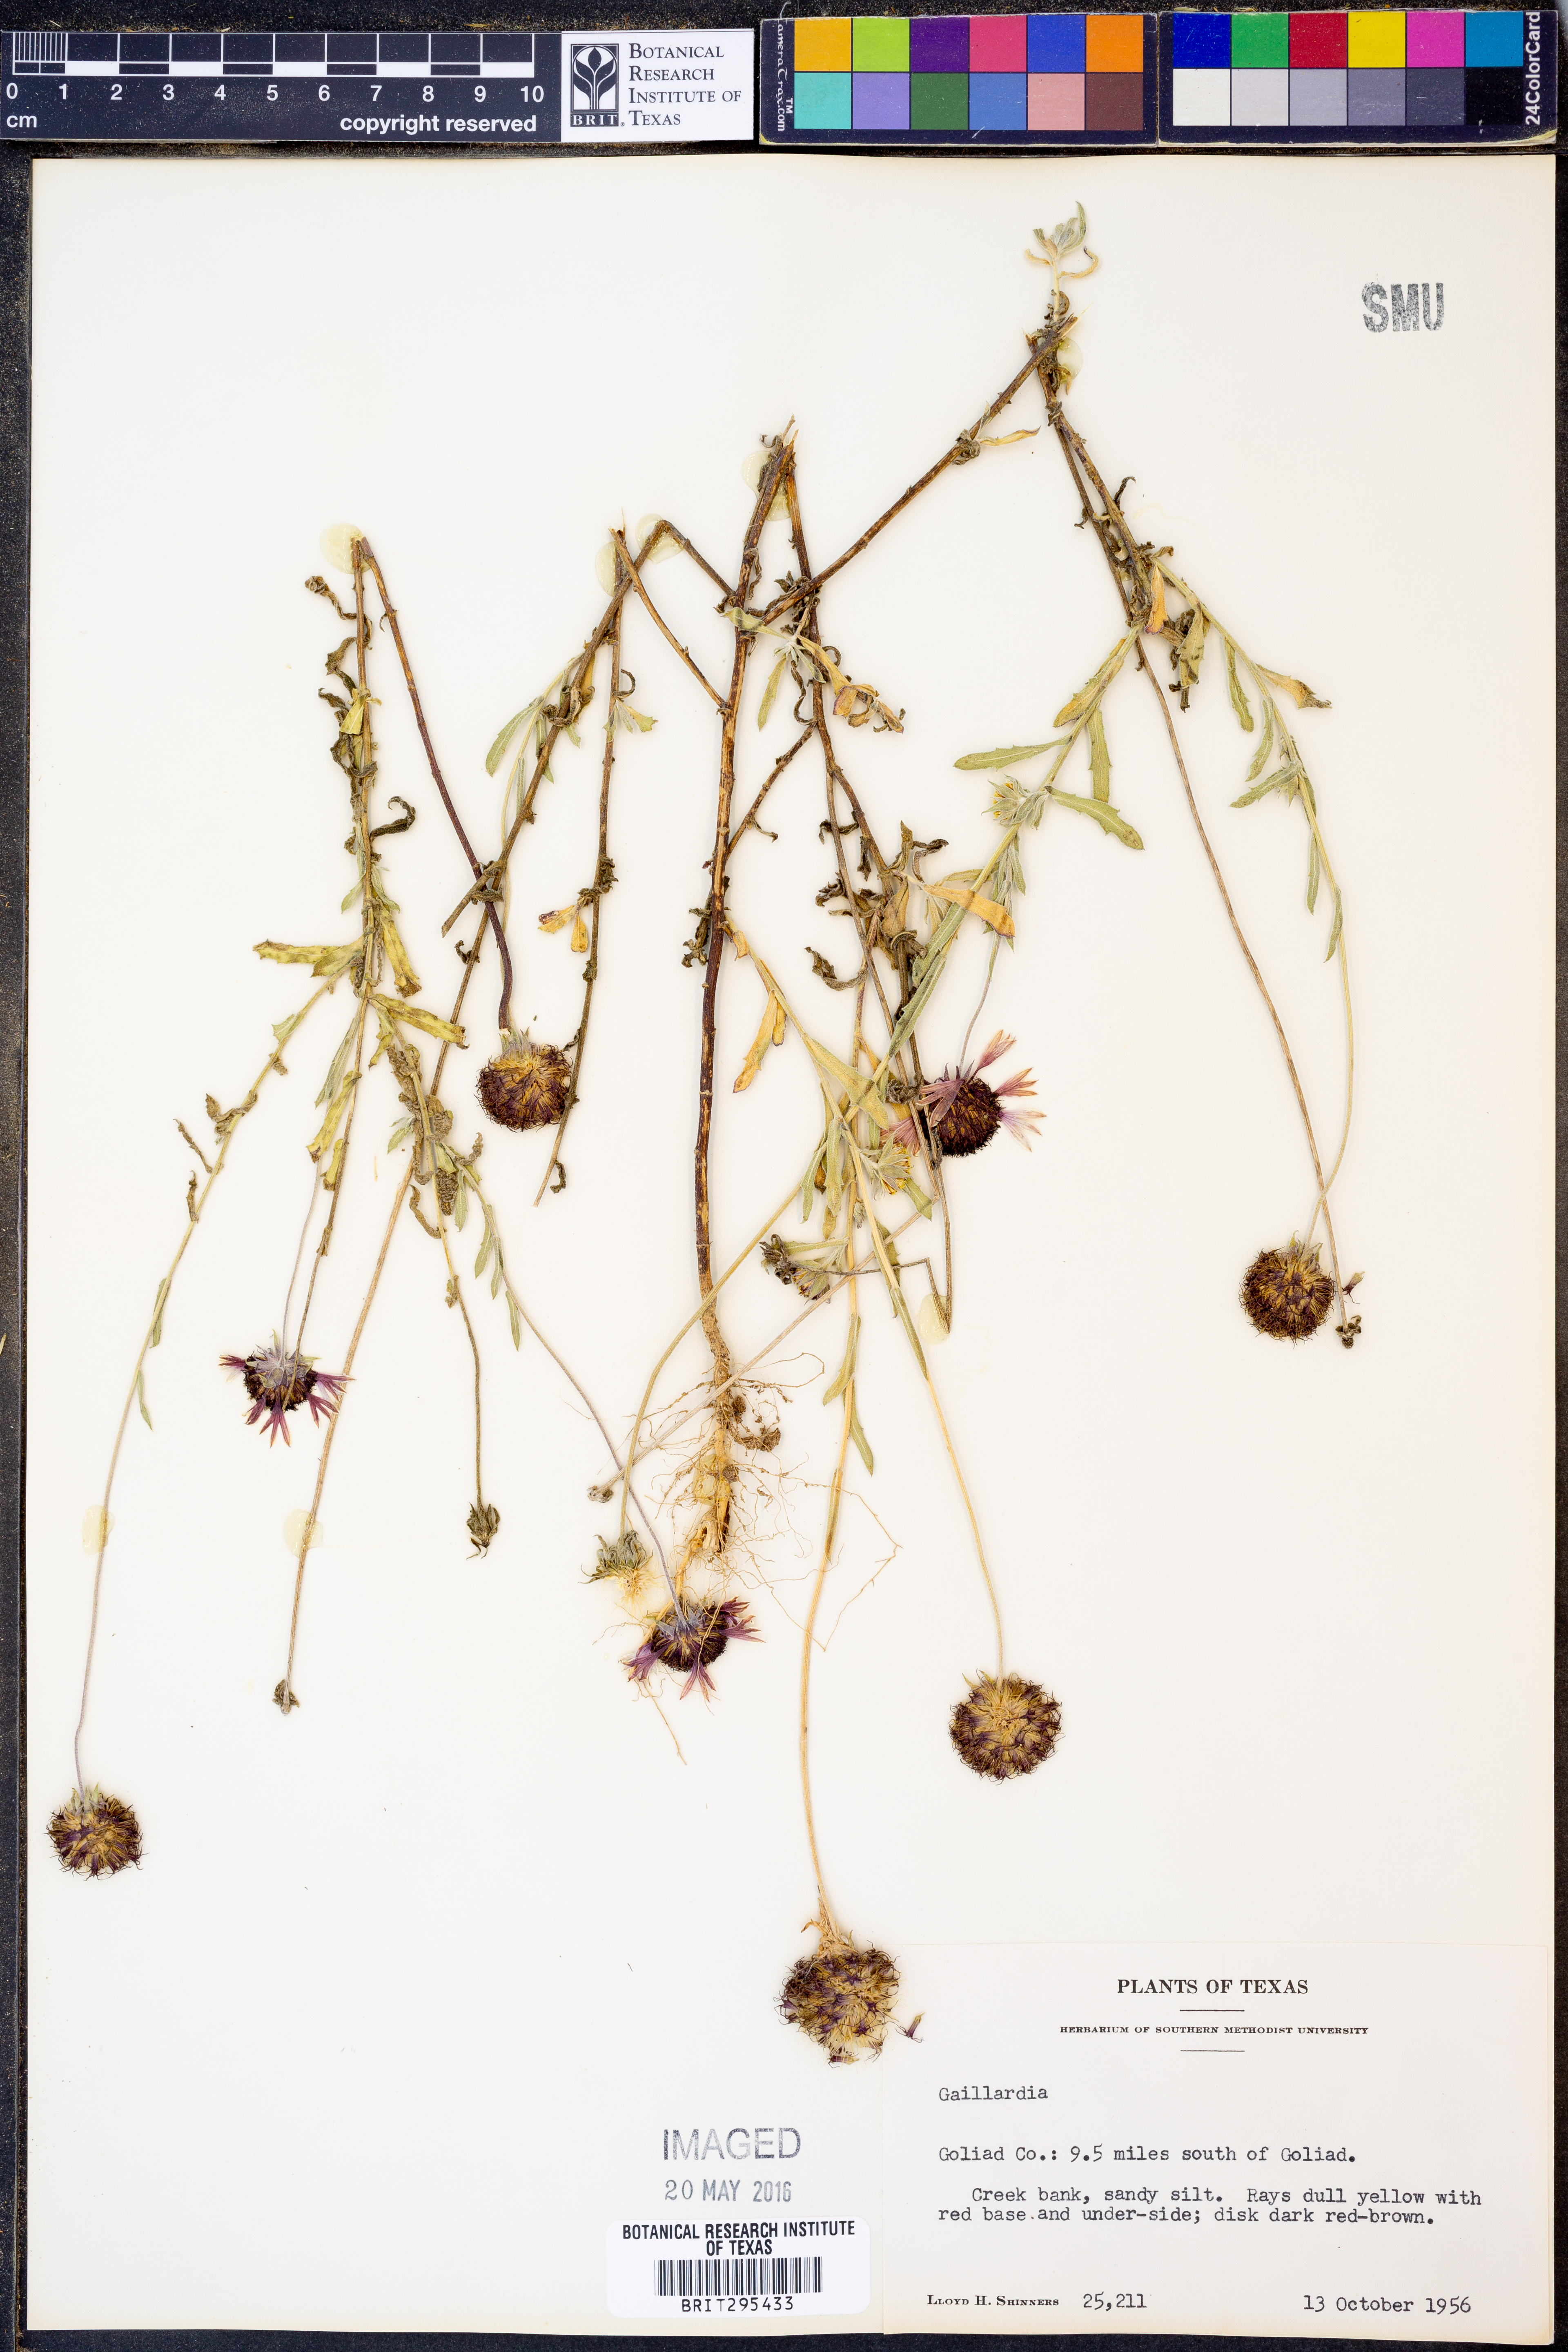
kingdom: Plantae
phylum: Tracheophyta
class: Magnoliopsida
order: Asterales
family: Asteraceae
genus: Gaillardia
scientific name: Gaillardia
